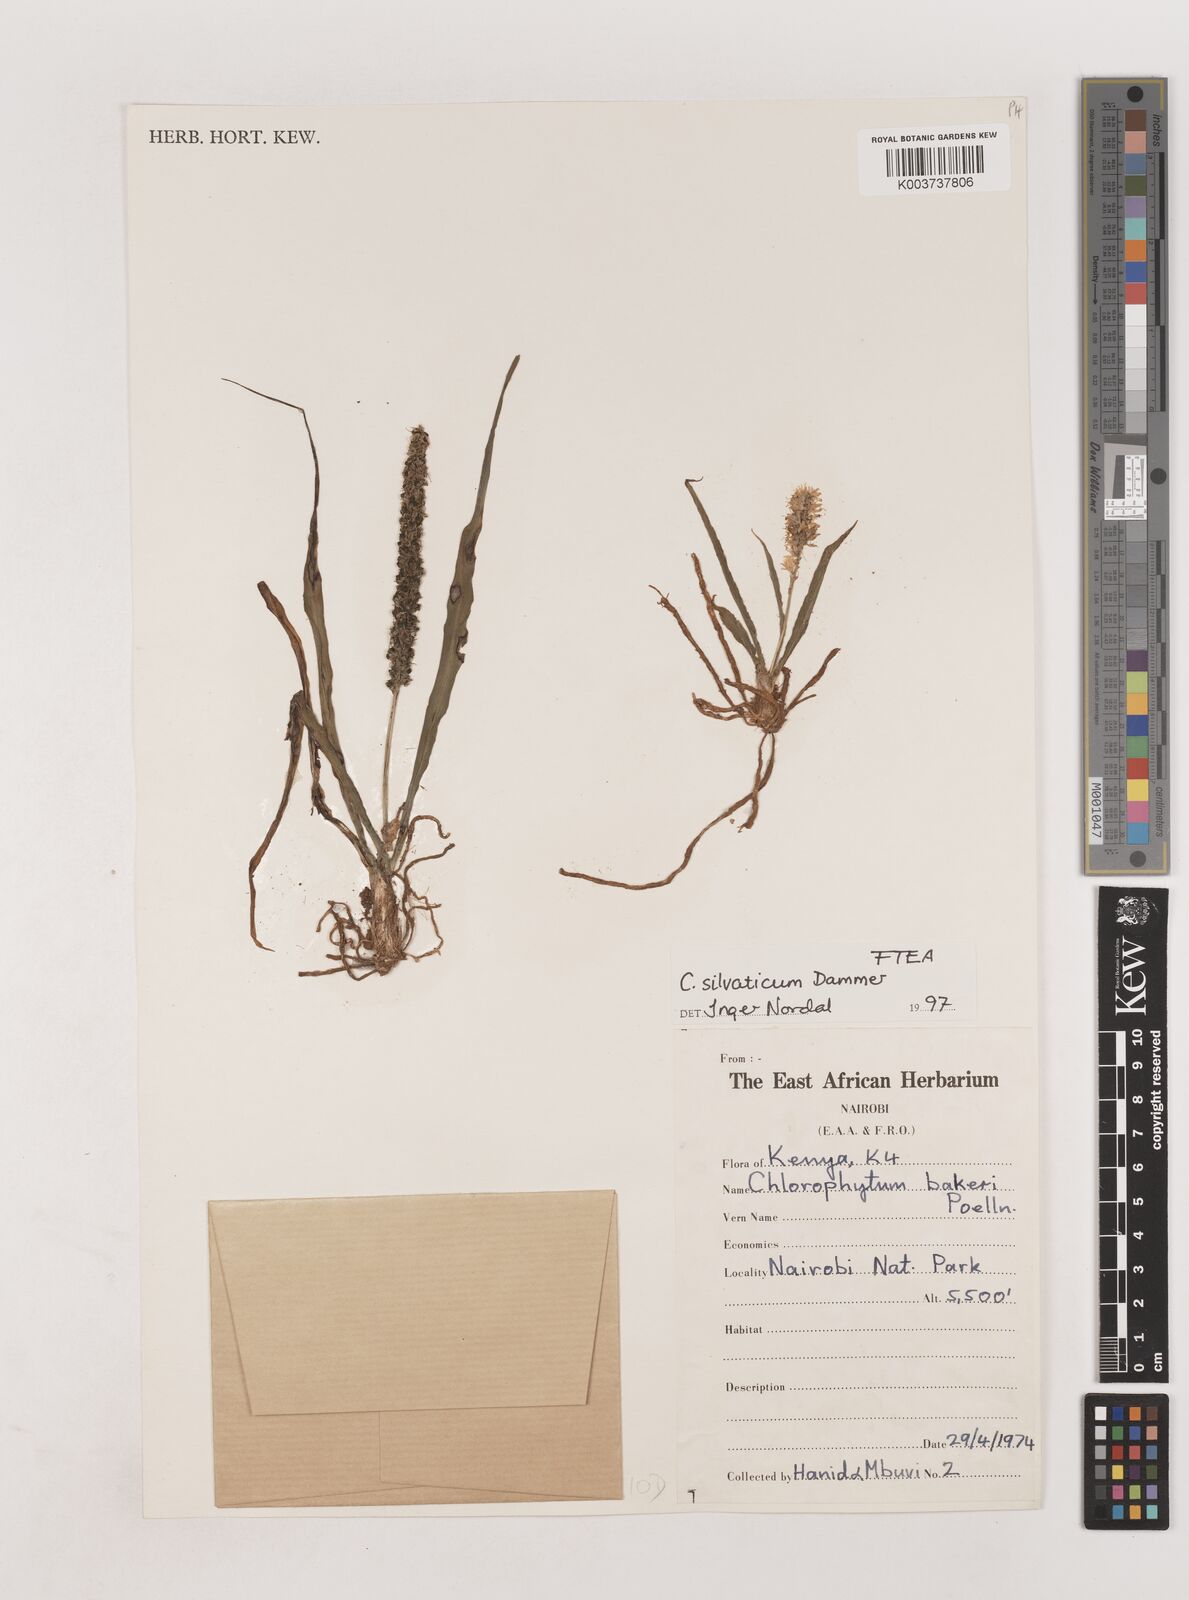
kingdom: Plantae
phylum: Tracheophyta
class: Liliopsida
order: Asparagales
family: Asparagaceae
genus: Chlorophytum
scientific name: Chlorophytum africanum
